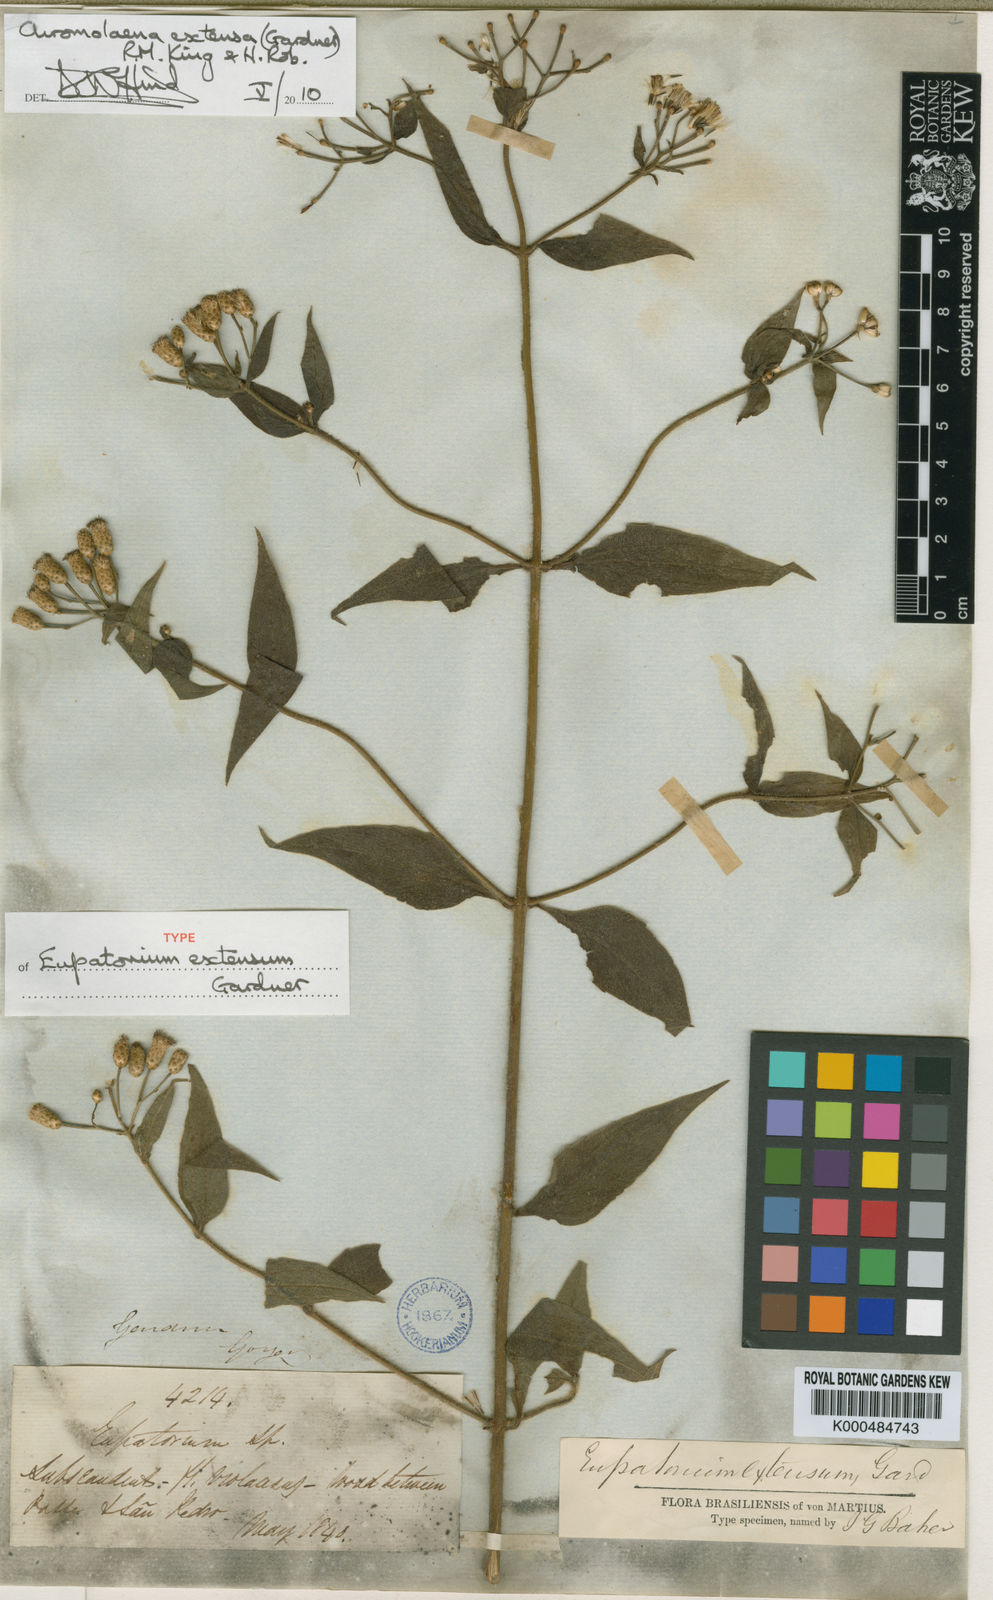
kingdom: Plantae
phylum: Tracheophyta
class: Magnoliopsida
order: Asterales
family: Asteraceae
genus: Chromolaena
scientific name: Chromolaena extensa
